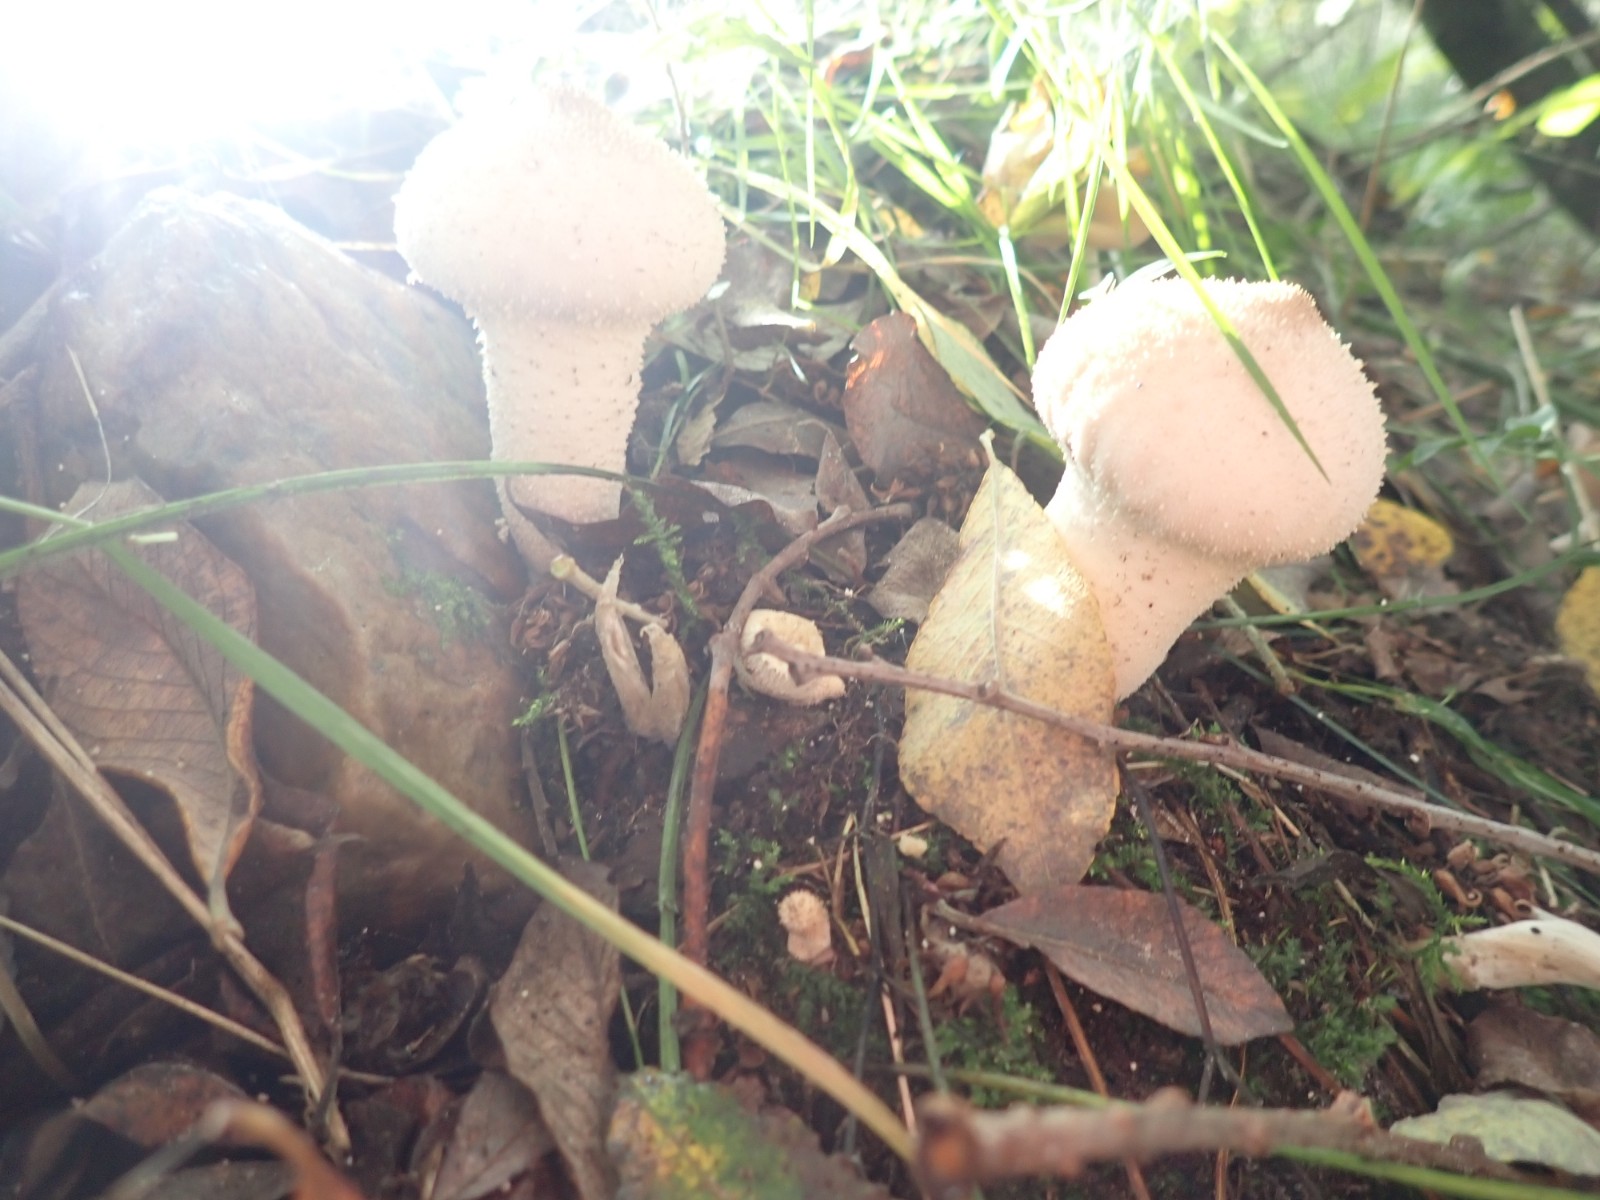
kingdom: Fungi
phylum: Basidiomycota
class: Agaricomycetes
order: Agaricales
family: Lycoperdaceae
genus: Lycoperdon
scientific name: Lycoperdon perlatum
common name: krystal-støvbold
